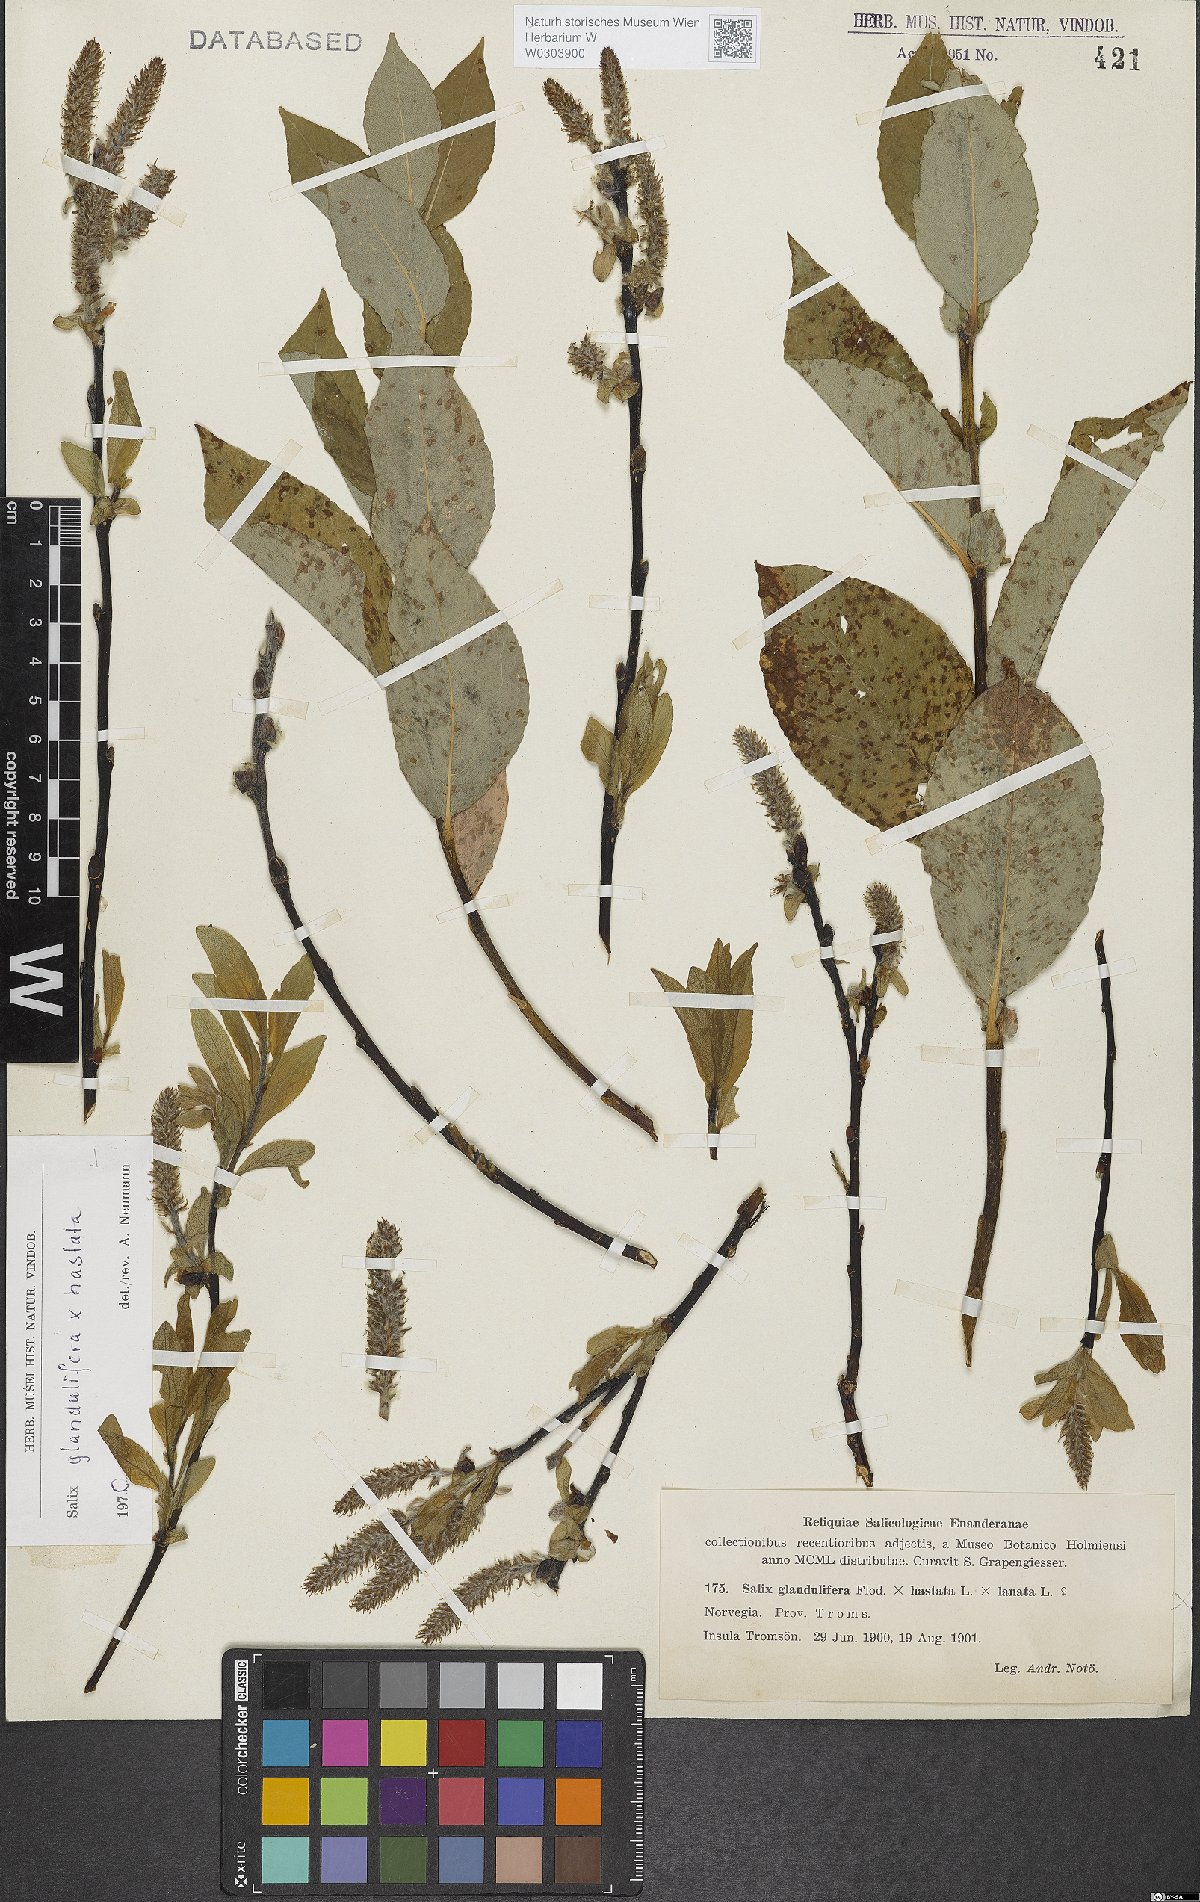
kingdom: Plantae
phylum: Tracheophyta
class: Magnoliopsida
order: Malpighiales
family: Salicaceae
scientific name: Salicaceae
